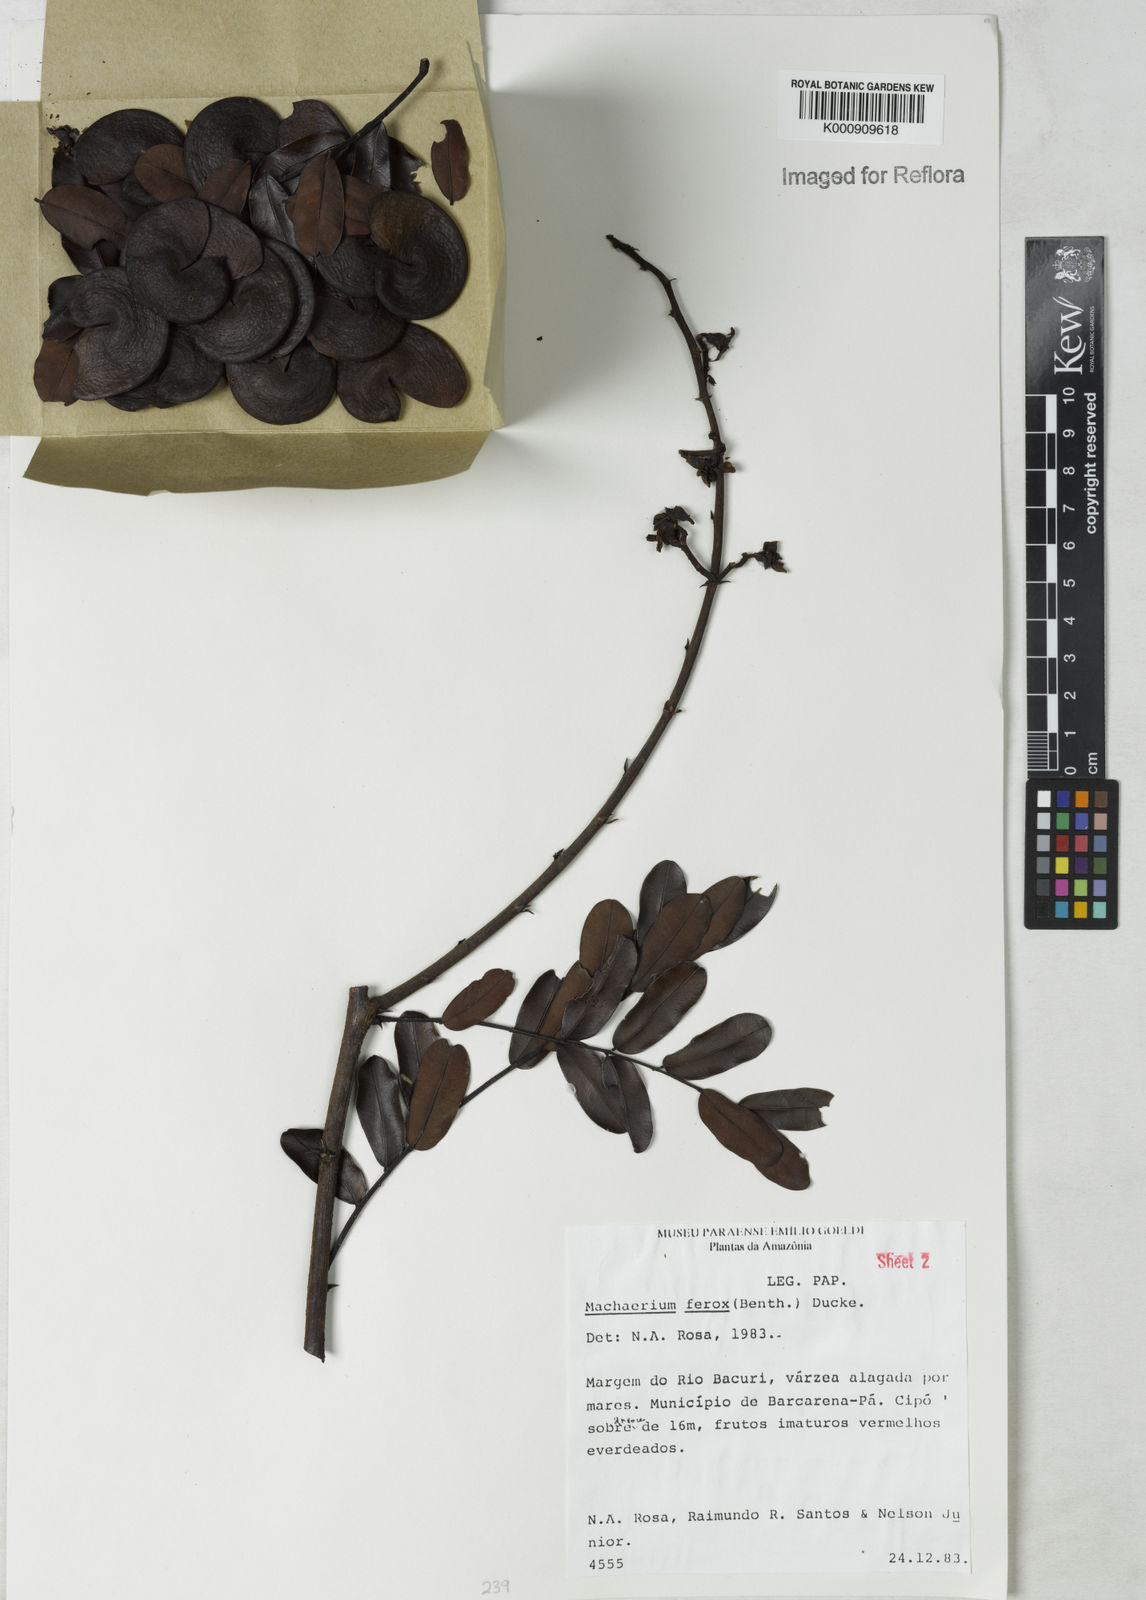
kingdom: Plantae
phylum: Tracheophyta
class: Magnoliopsida
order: Fabales
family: Fabaceae
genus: Machaerium
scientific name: Machaerium ferox
